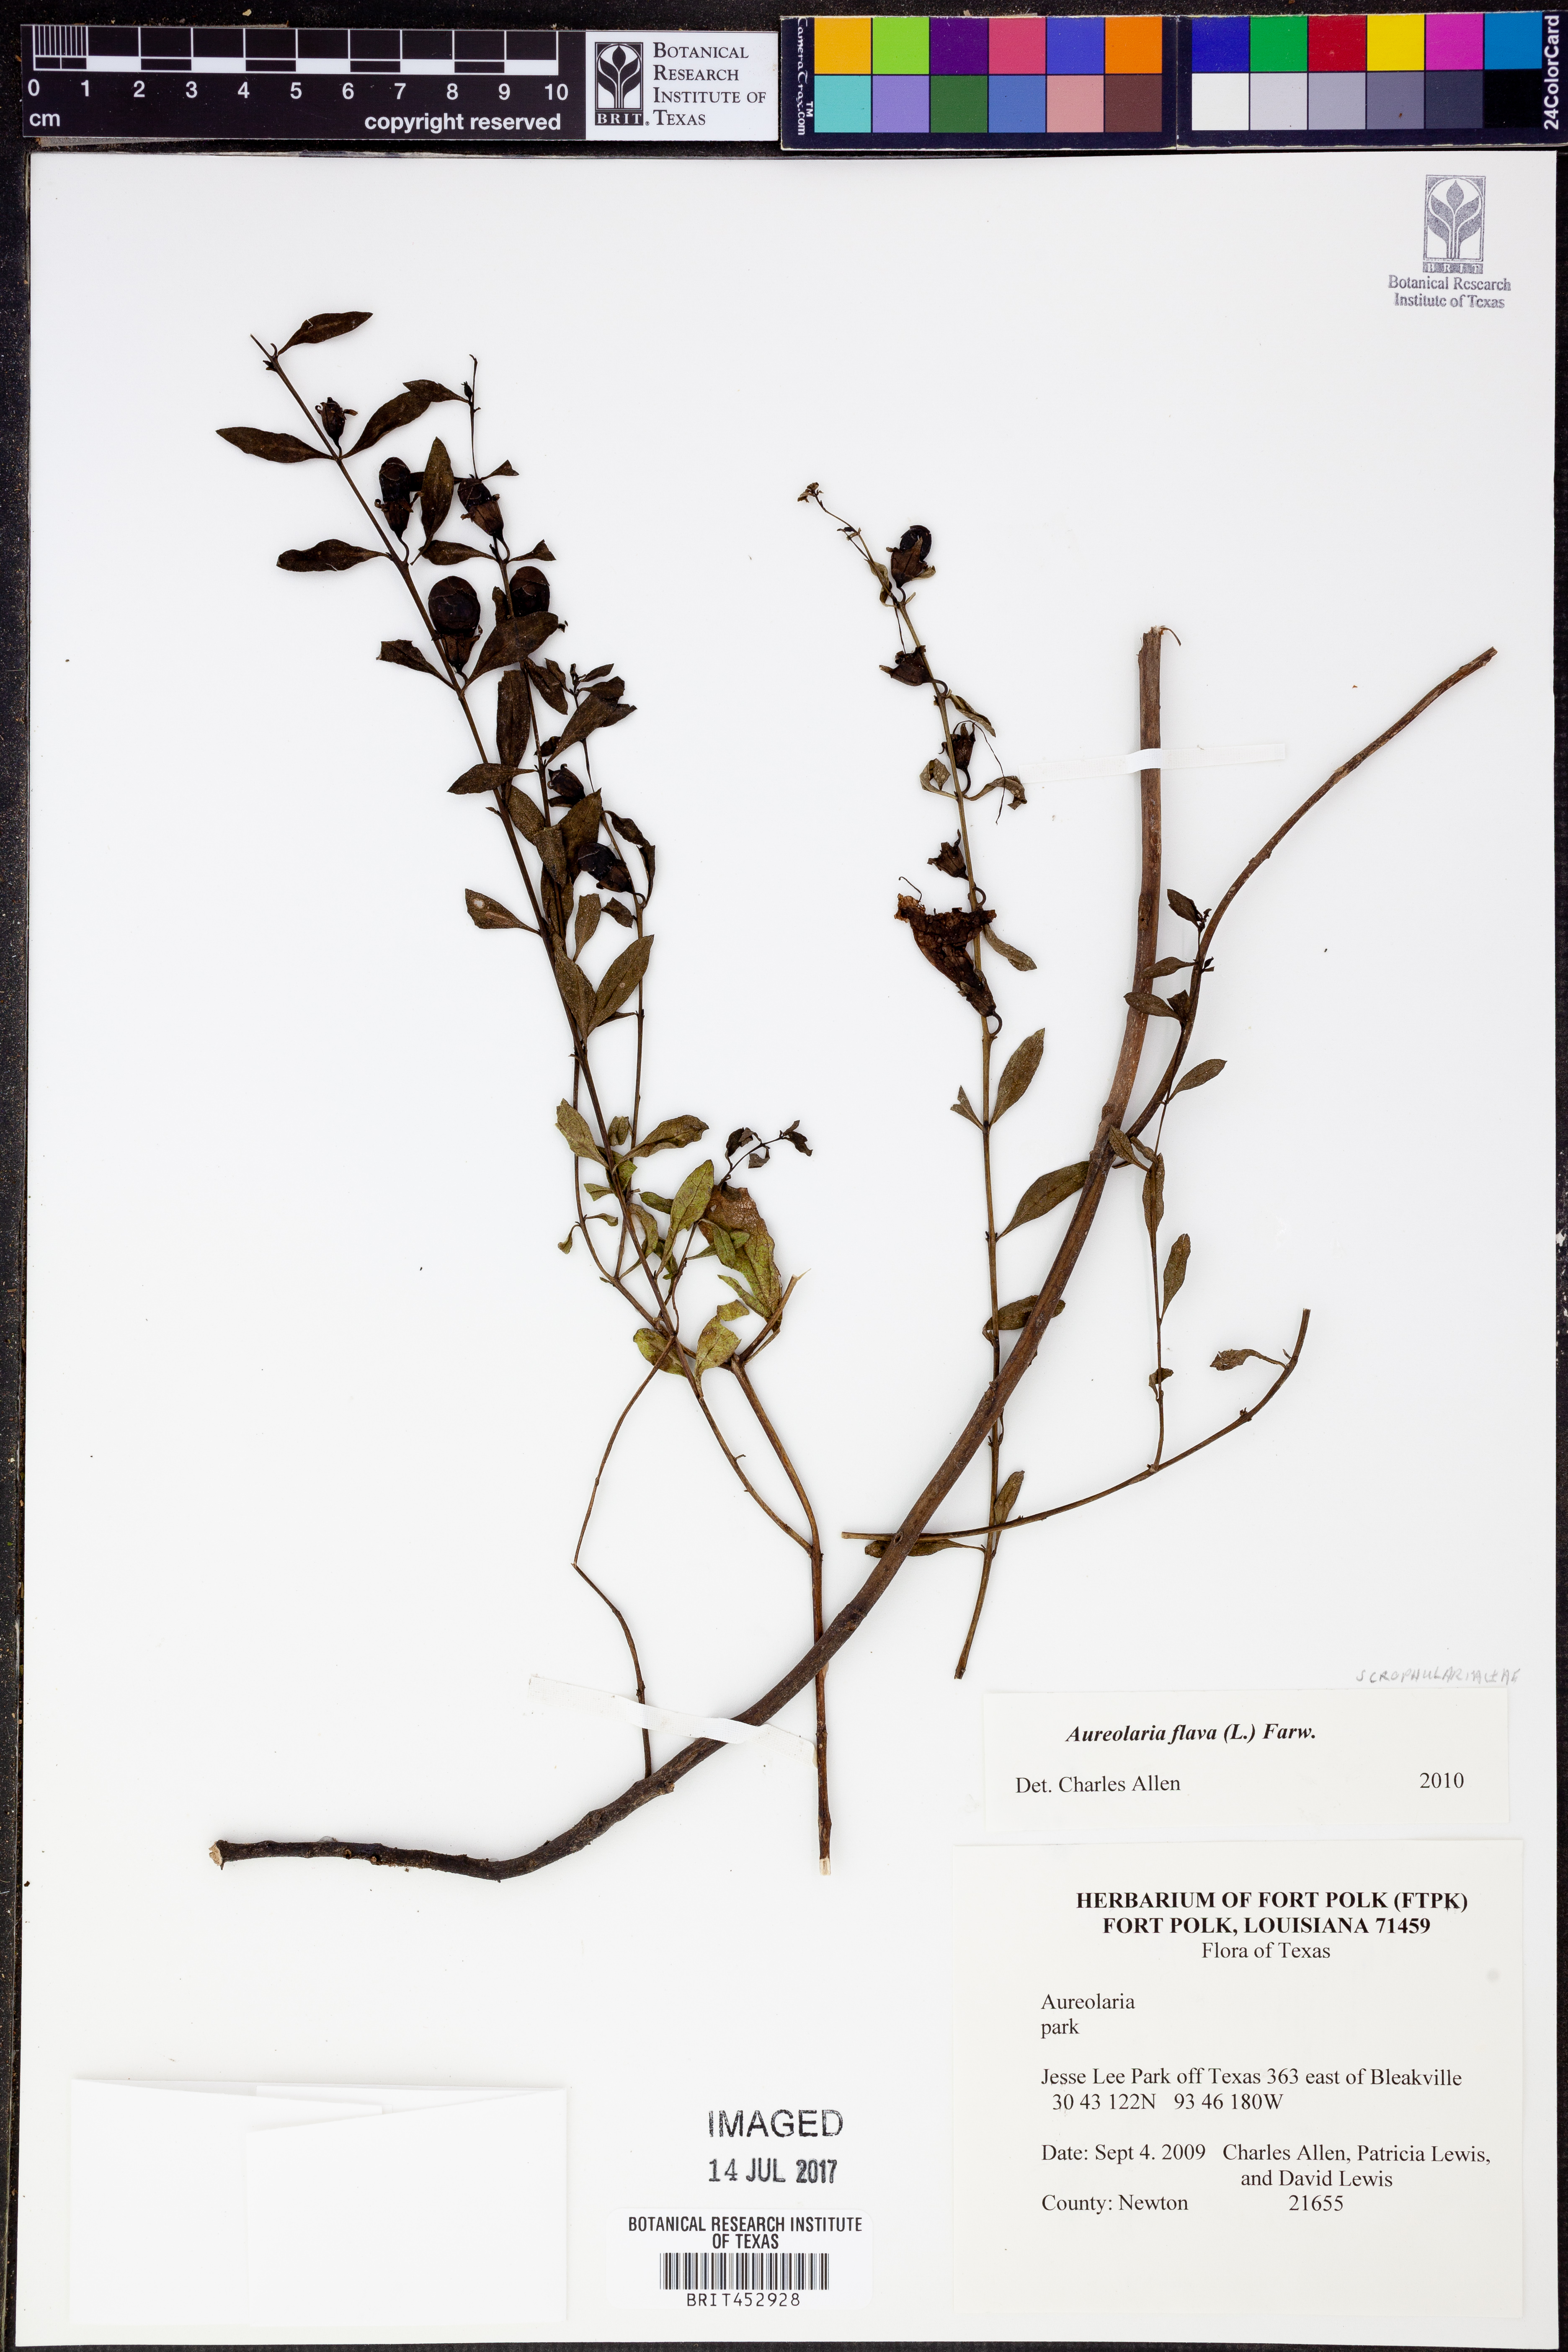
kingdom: Plantae
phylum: Tracheophyta
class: Magnoliopsida
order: Lamiales
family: Orobanchaceae
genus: Aureolaria
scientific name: Aureolaria flava
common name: Smooth false foxglove
